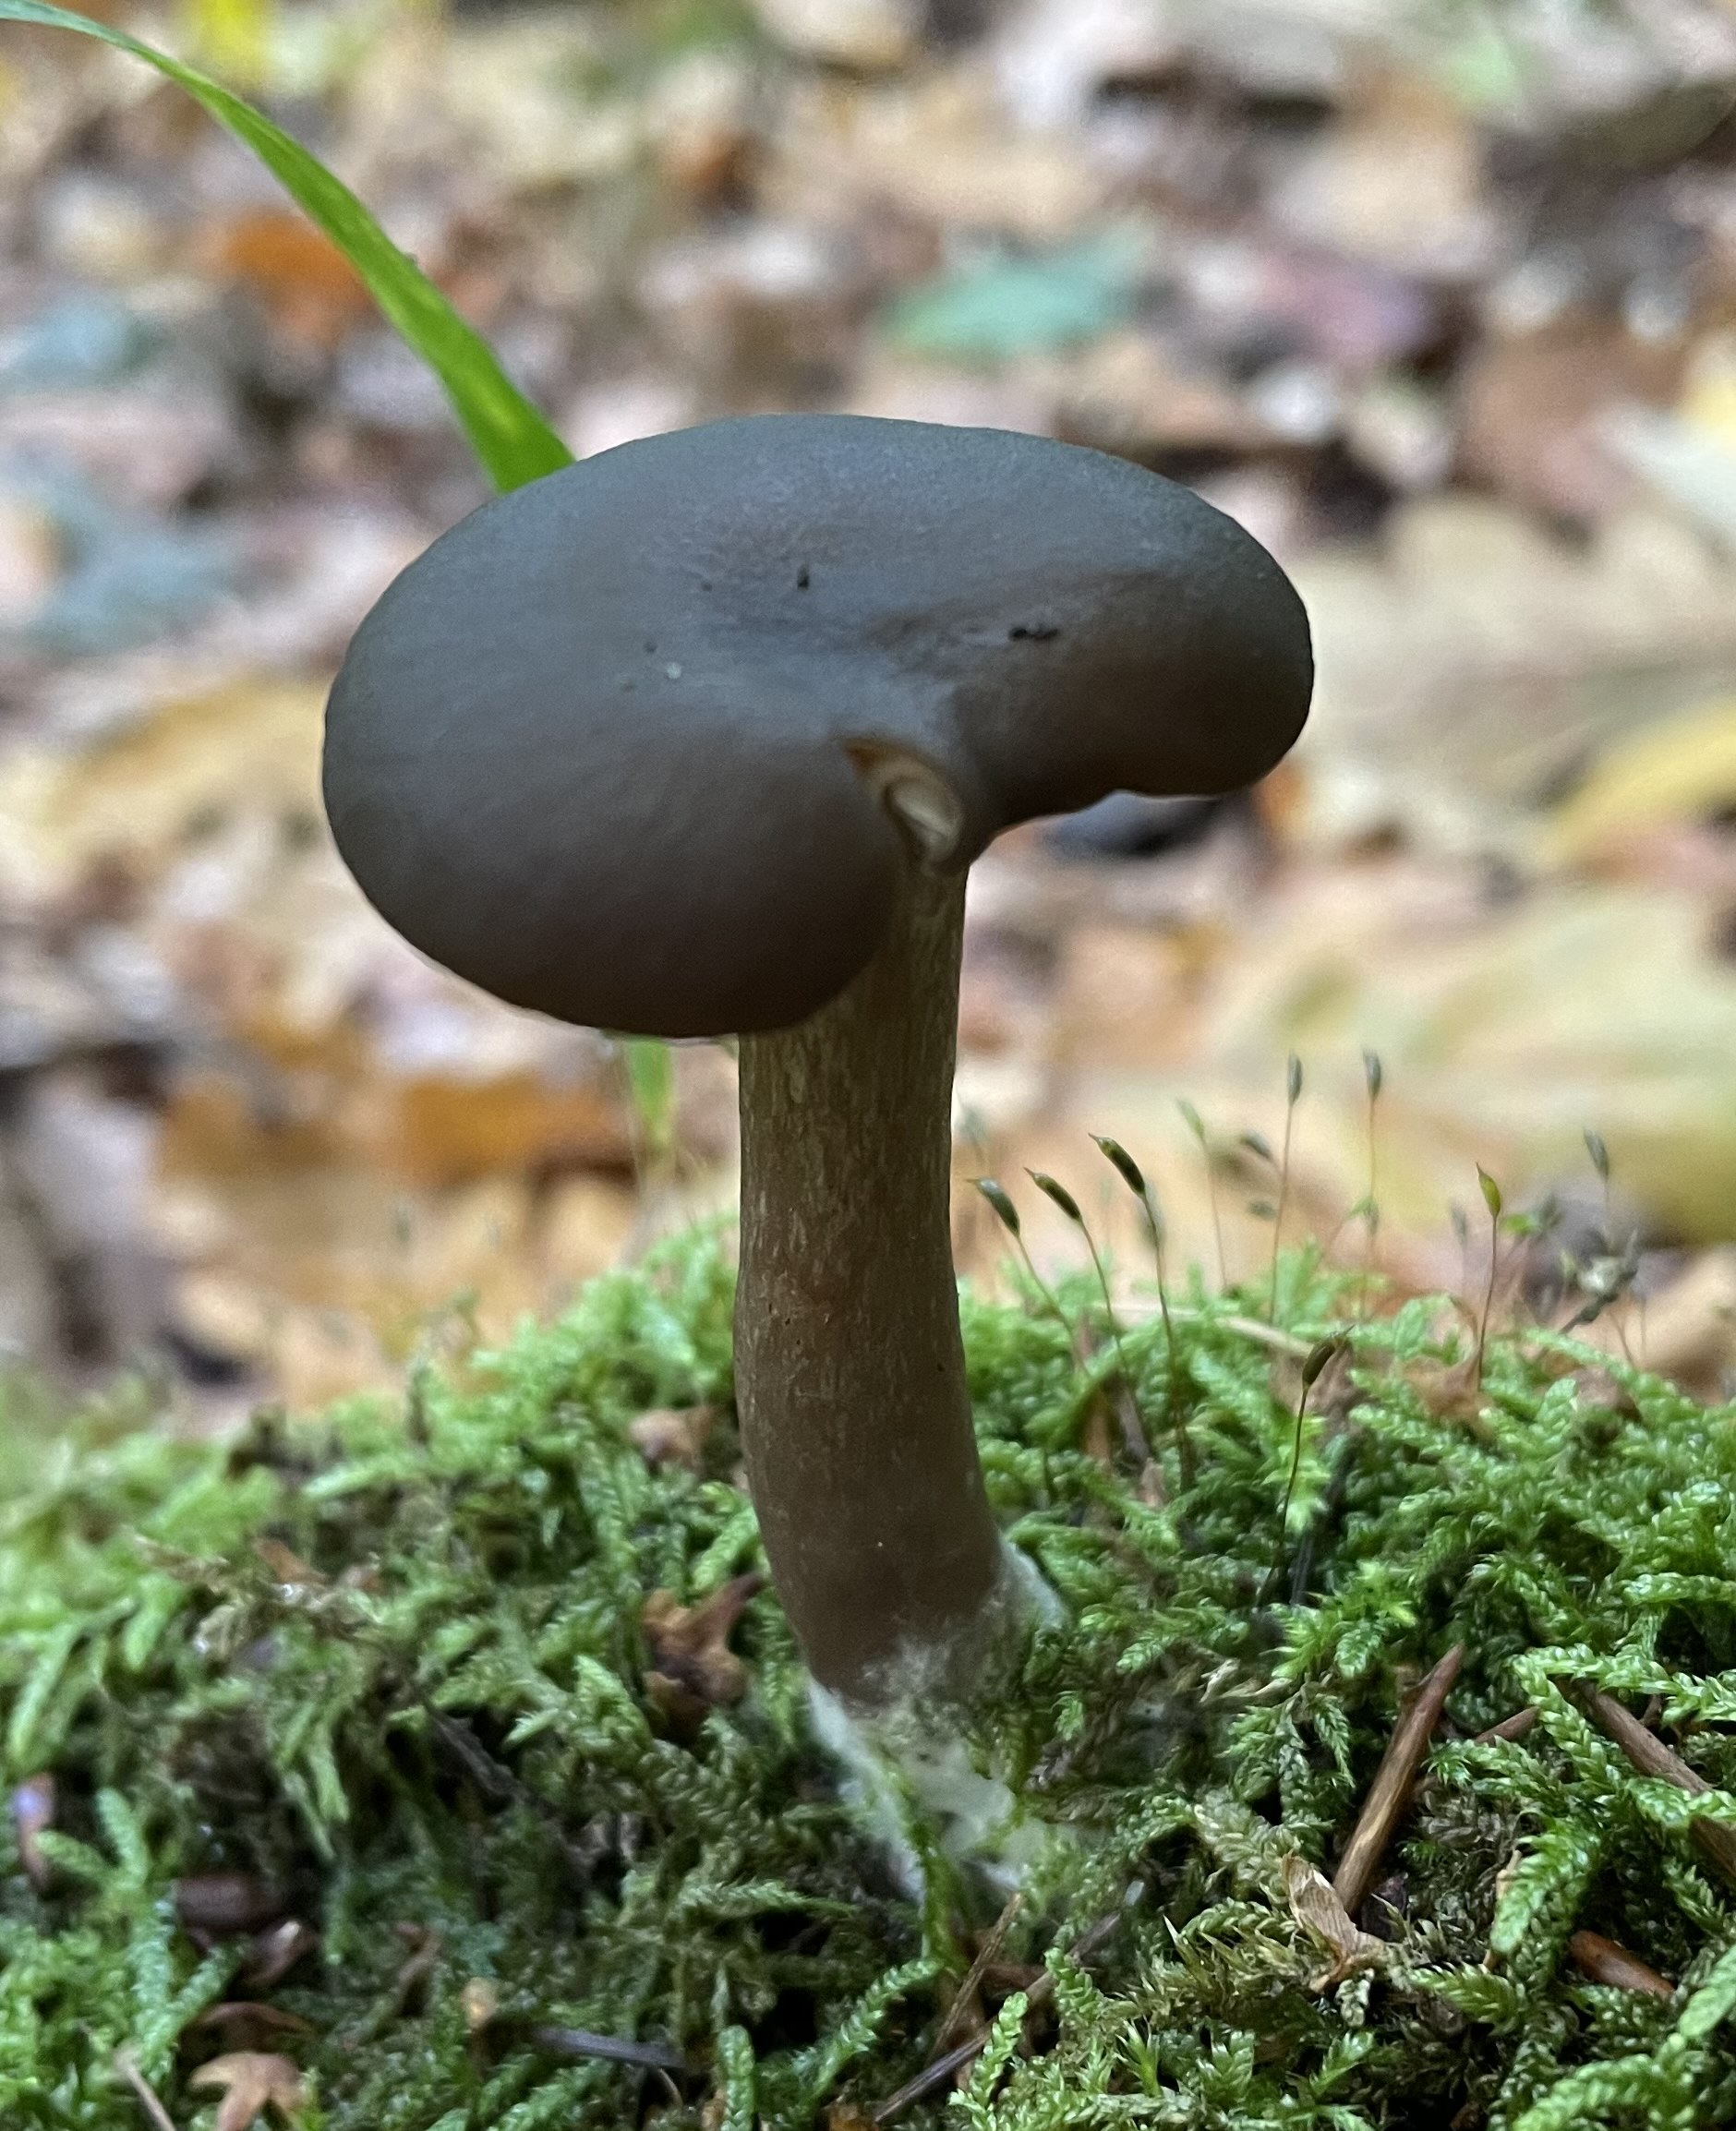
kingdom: Fungi
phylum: Basidiomycota
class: Agaricomycetes
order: Agaricales
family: Tricholomataceae
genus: Melanoleuca
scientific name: Melanoleuca
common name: munkehat
